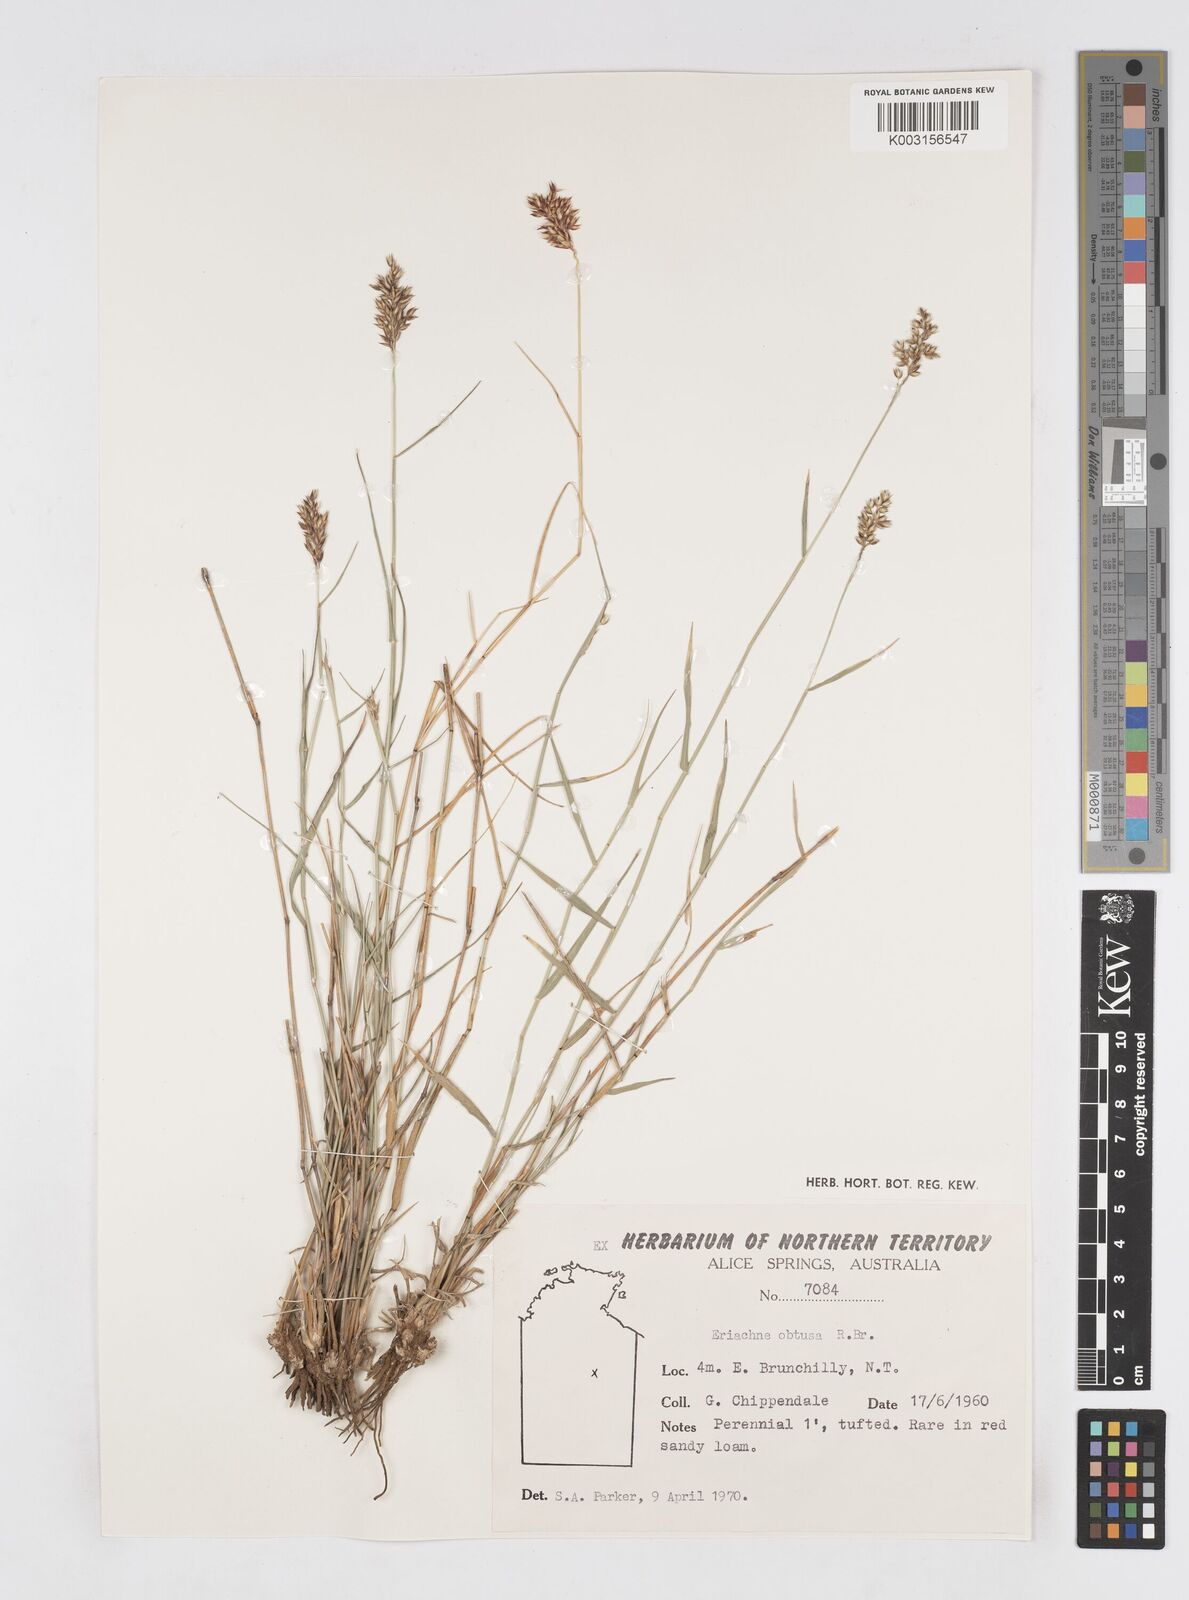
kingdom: Plantae
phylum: Tracheophyta
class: Liliopsida
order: Poales
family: Poaceae
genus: Eriachne
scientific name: Eriachne obtusa
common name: Northern wanderrie grass
